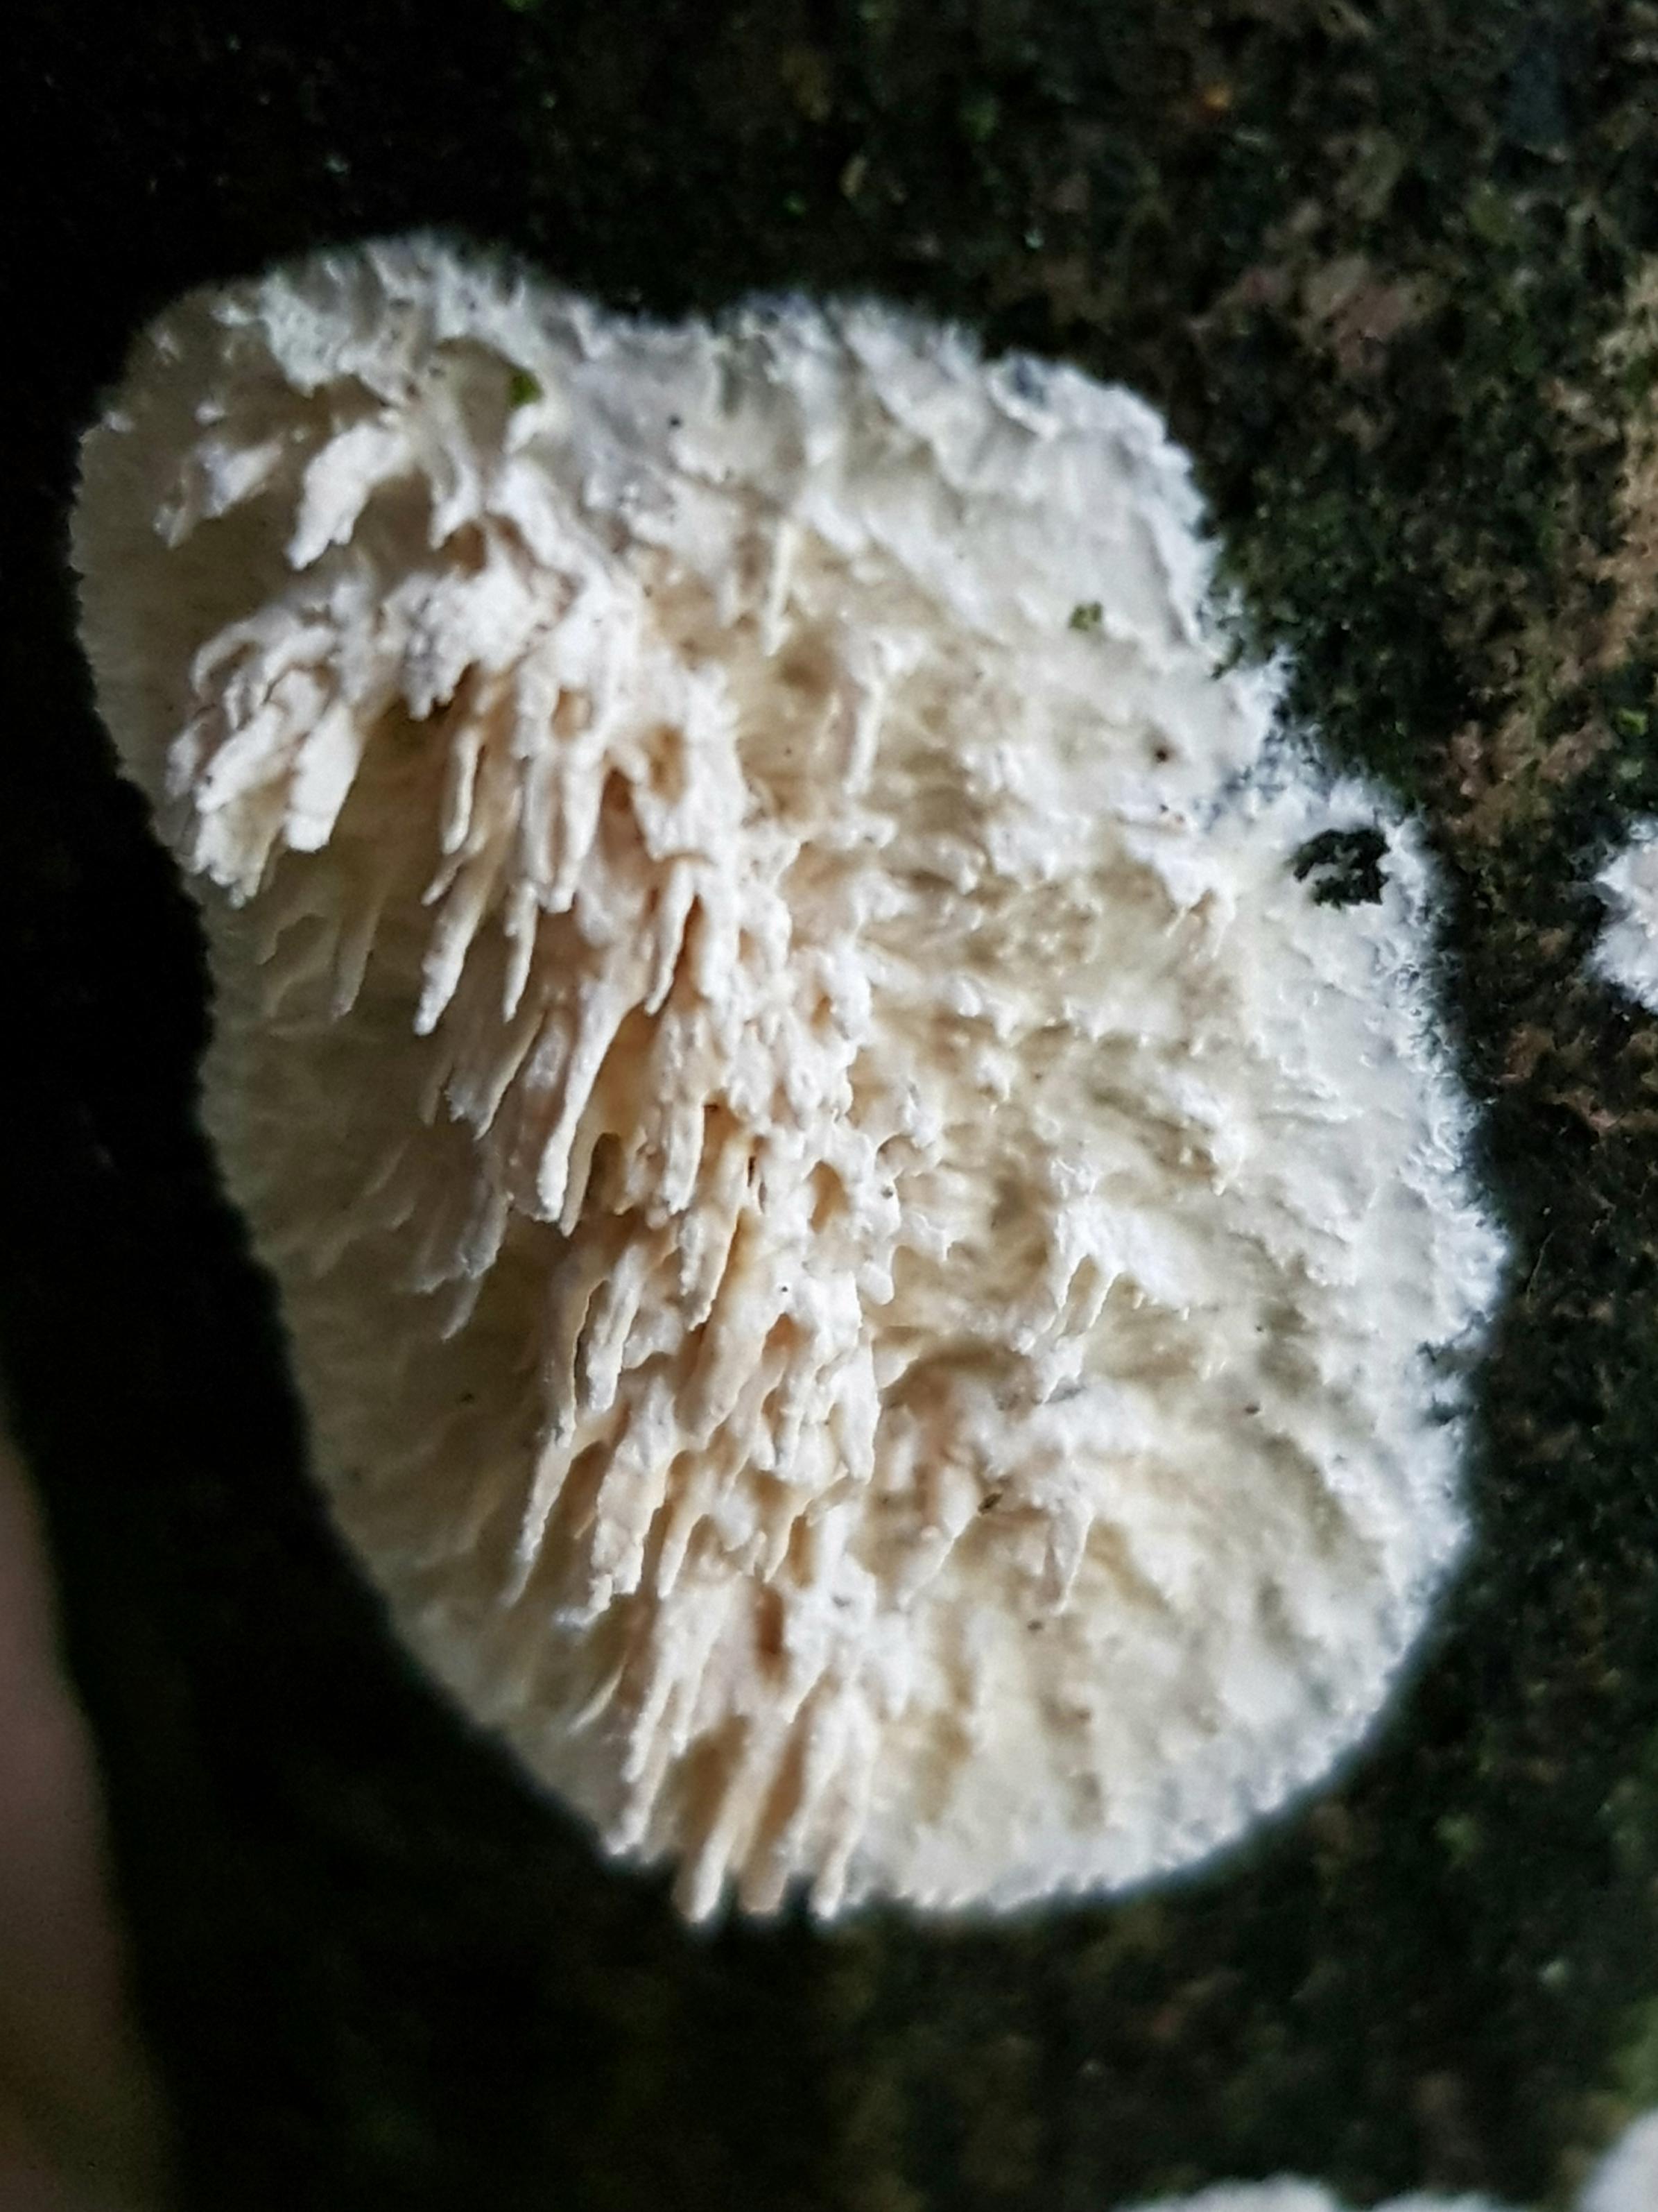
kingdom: Fungi
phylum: Basidiomycota
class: Agaricomycetes
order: Hymenochaetales
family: Schizoporaceae
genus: Xylodon
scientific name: Xylodon radula
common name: grovtandet kalkskind
